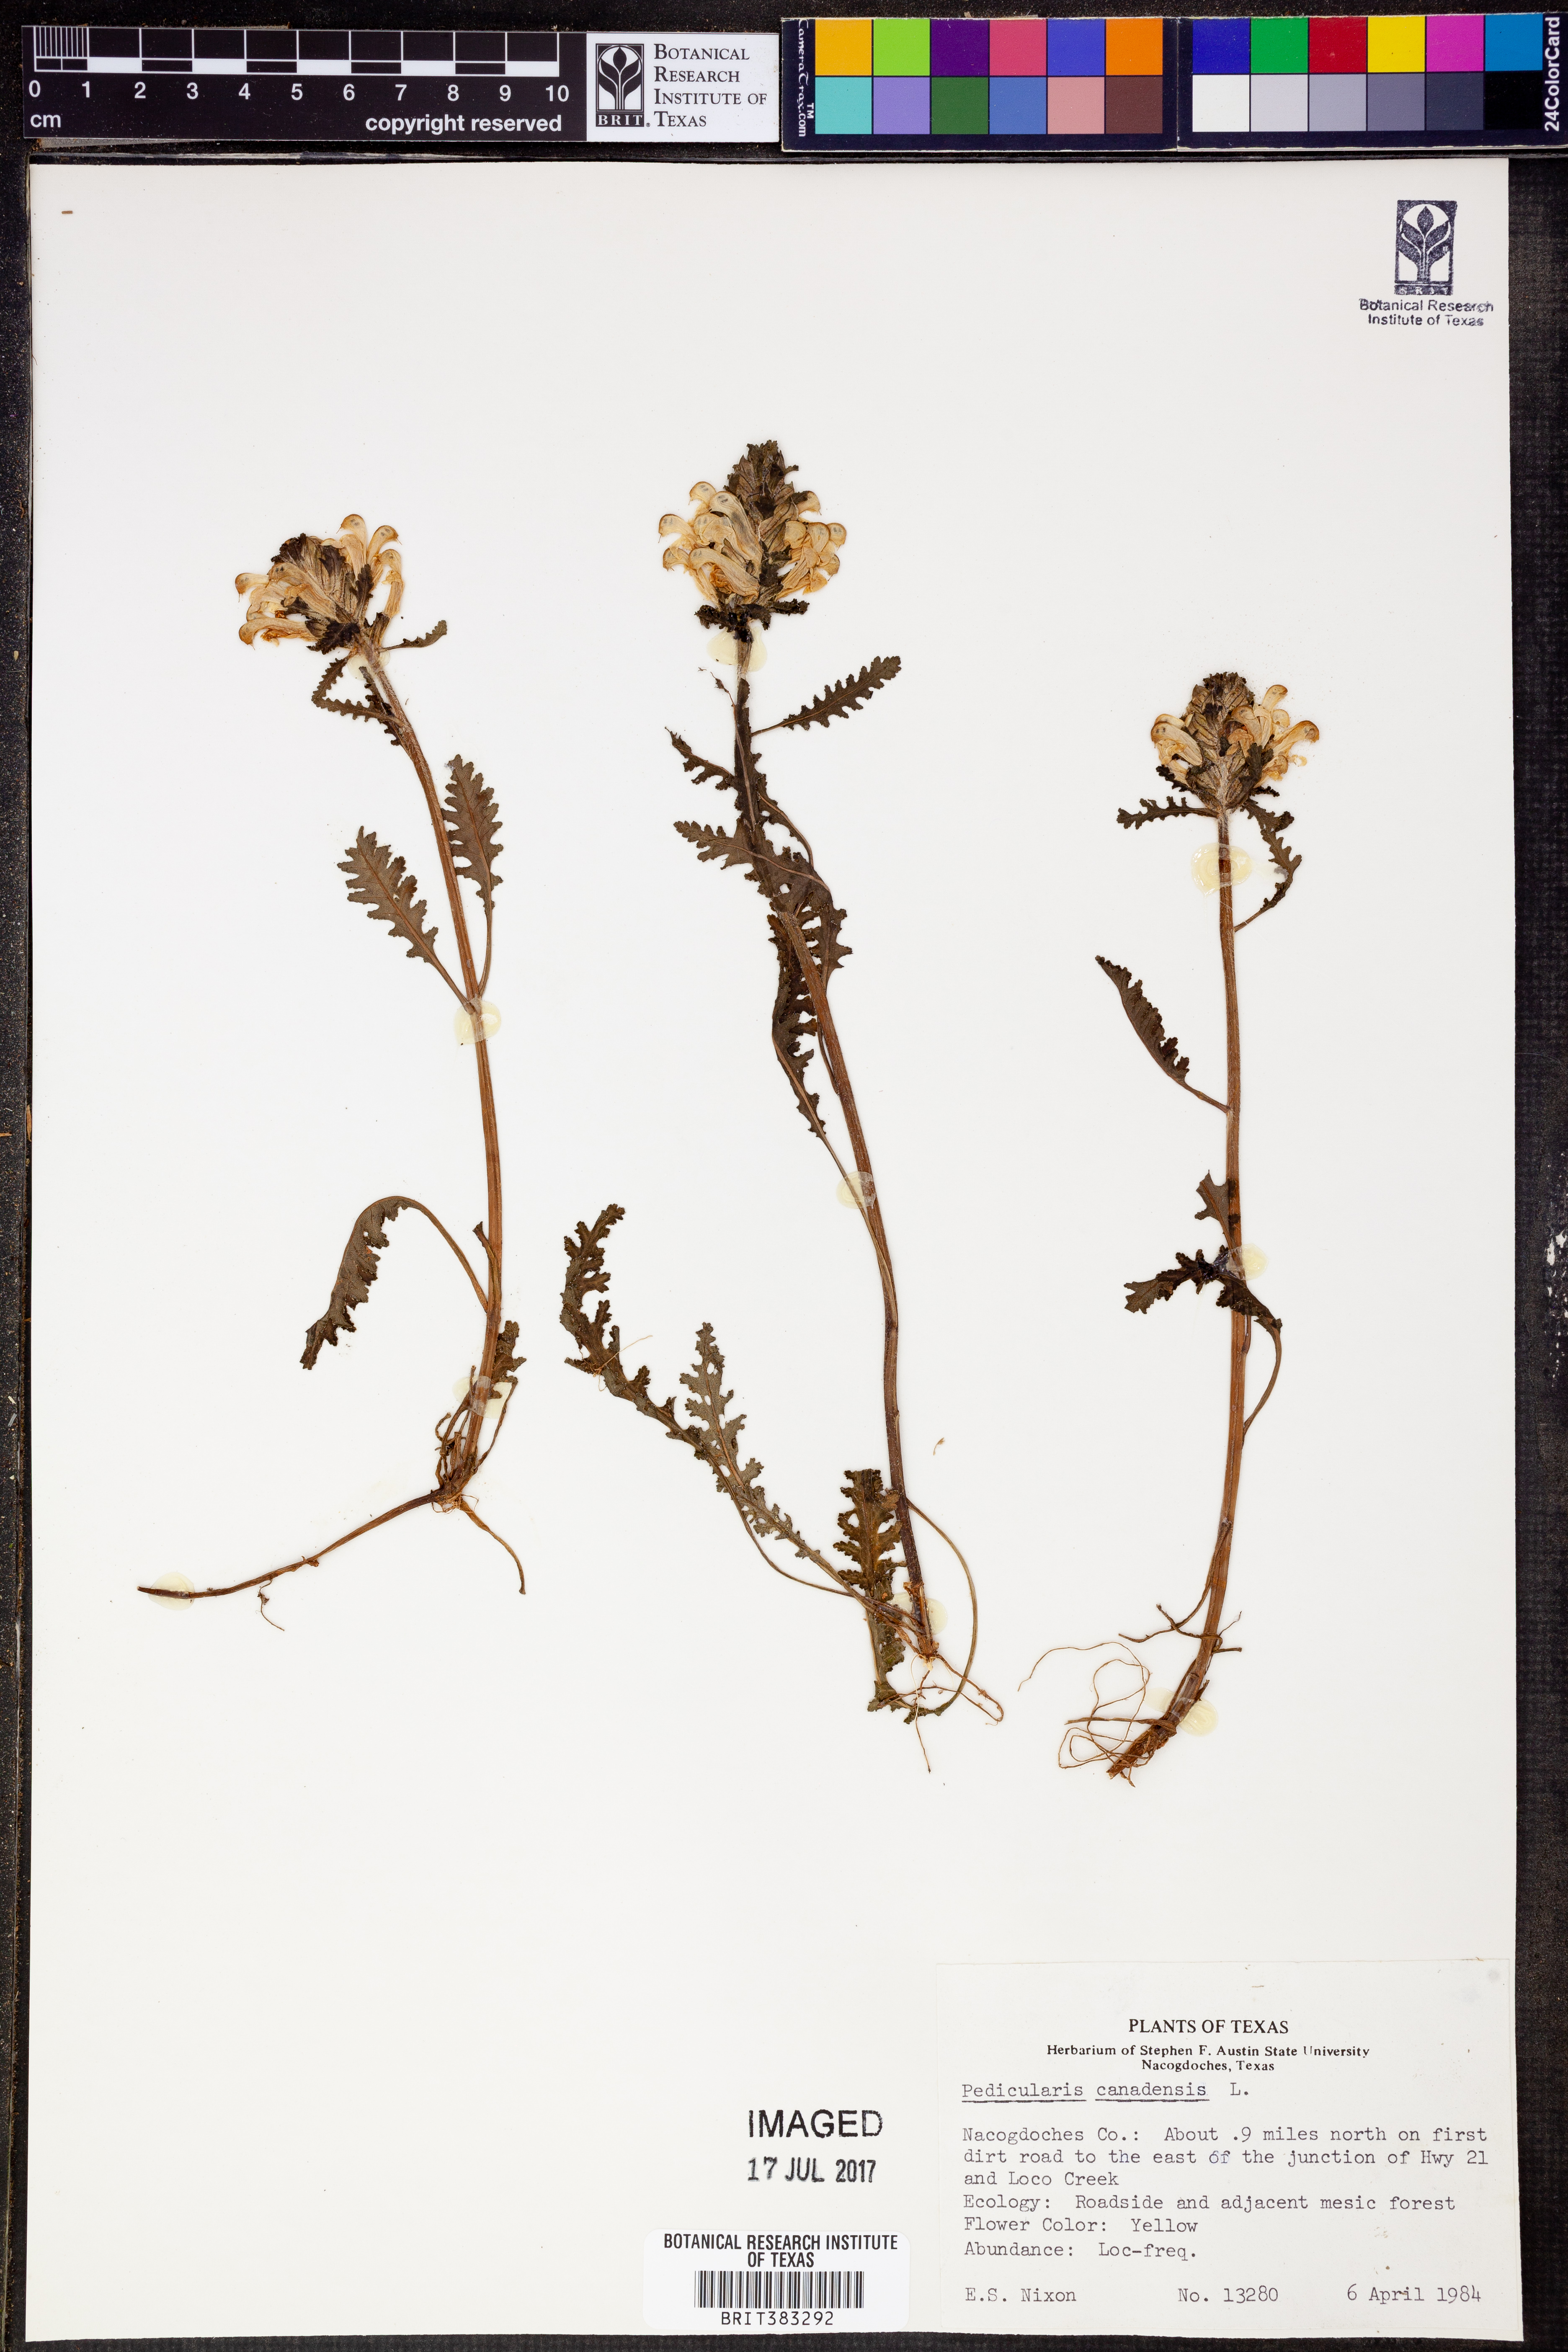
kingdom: Plantae
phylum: Tracheophyta
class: Magnoliopsida
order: Lamiales
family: Orobanchaceae
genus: Pedicularis
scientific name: Pedicularis canadensis
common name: Early lousewort
